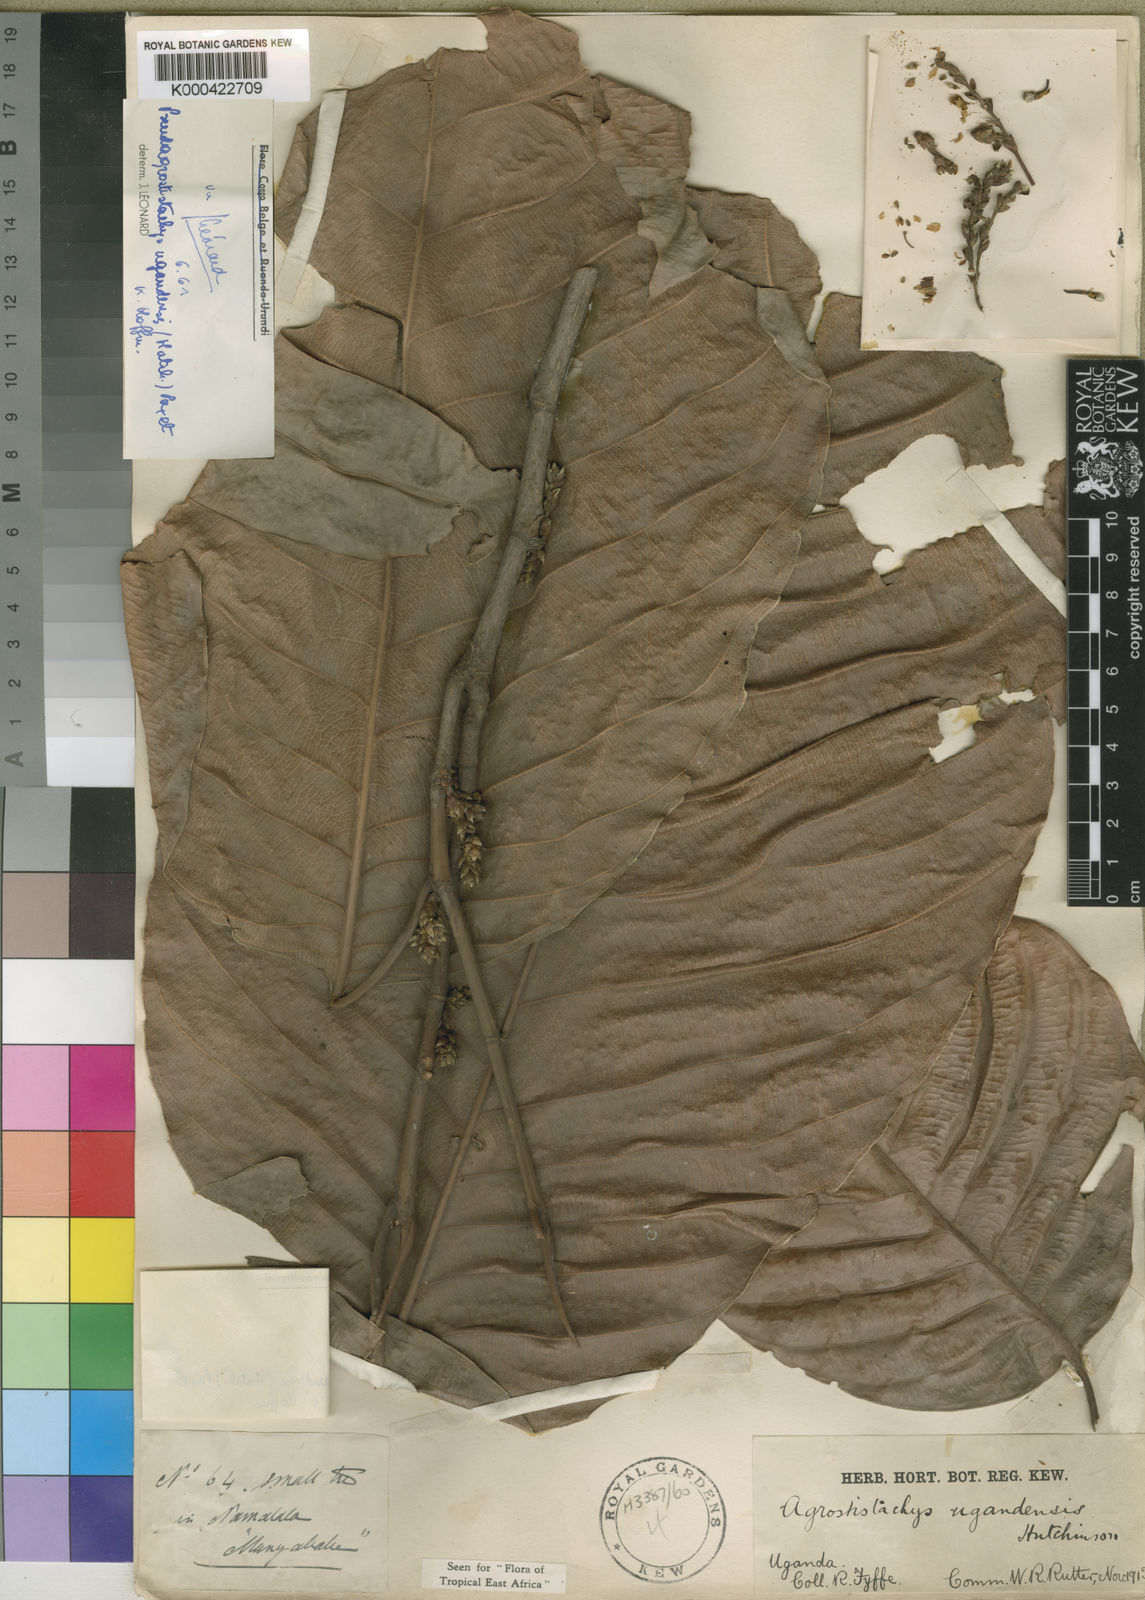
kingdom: Plantae
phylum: Tracheophyta
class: Magnoliopsida
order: Malpighiales
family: Euphorbiaceae
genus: Pseudagrostistachys
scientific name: Pseudagrostistachys ugandensis
